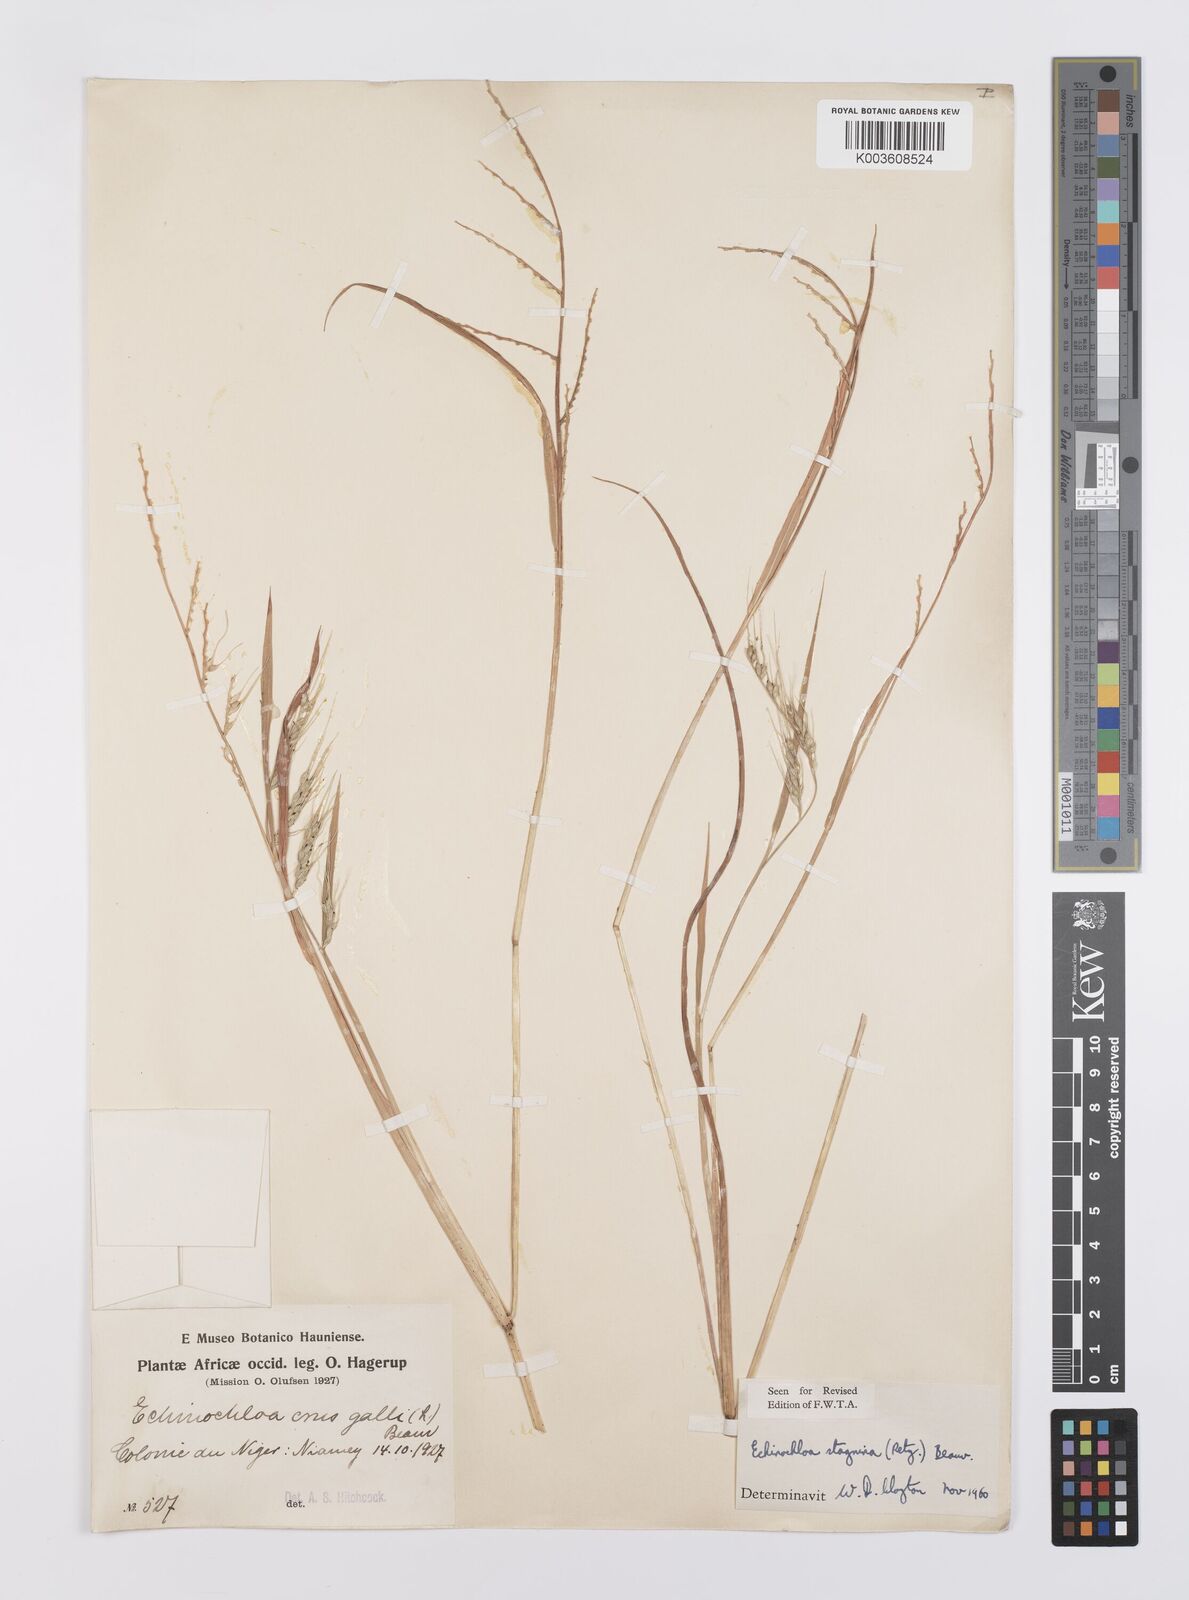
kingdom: Plantae
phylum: Tracheophyta
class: Liliopsida
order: Poales
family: Poaceae
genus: Echinochloa
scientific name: Echinochloa stagnina
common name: Burgu grass
